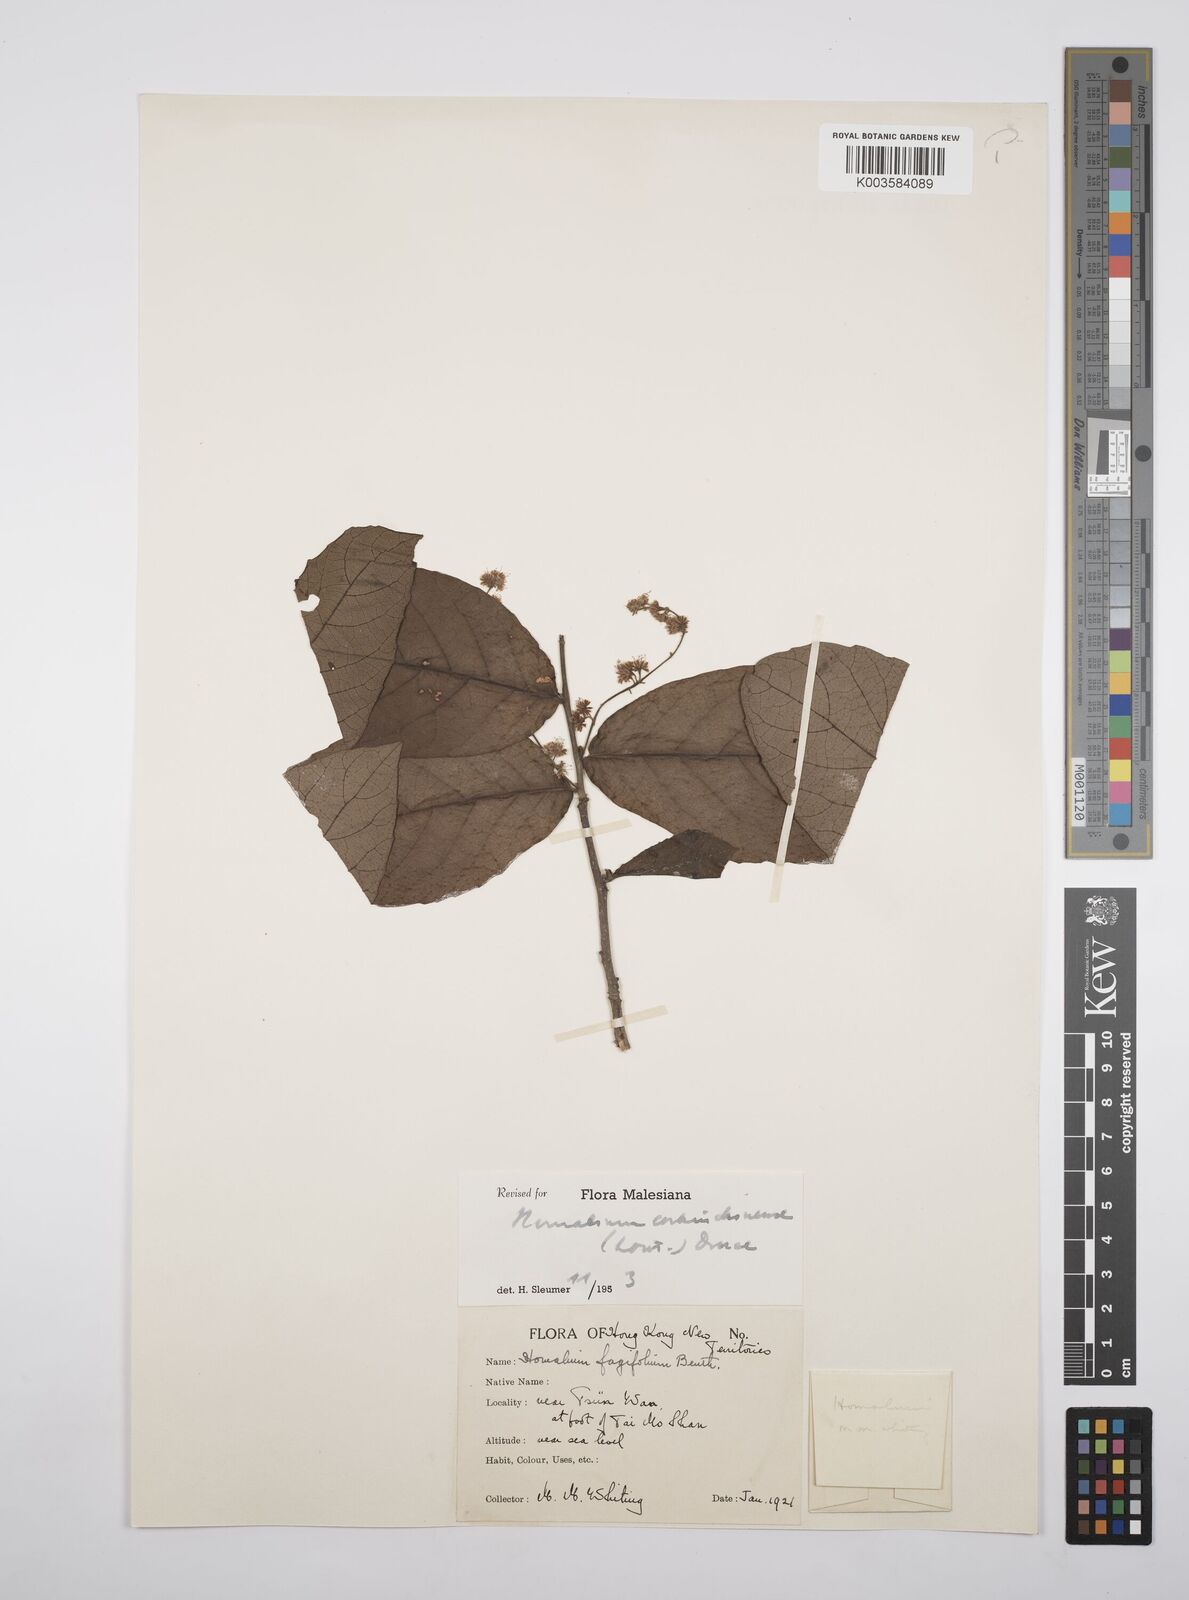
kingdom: Plantae
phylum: Tracheophyta
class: Magnoliopsida
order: Malpighiales
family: Salicaceae
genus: Homalium
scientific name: Homalium cochinchinensis
